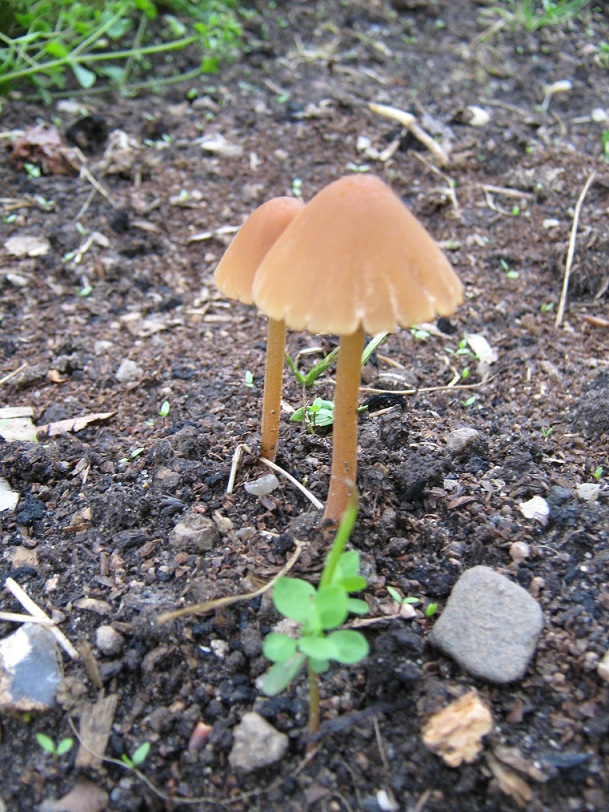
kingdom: Fungi
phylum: Basidiomycota
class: Agaricomycetes
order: Agaricales
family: Bolbitiaceae
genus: Conocybe
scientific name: Conocybe
